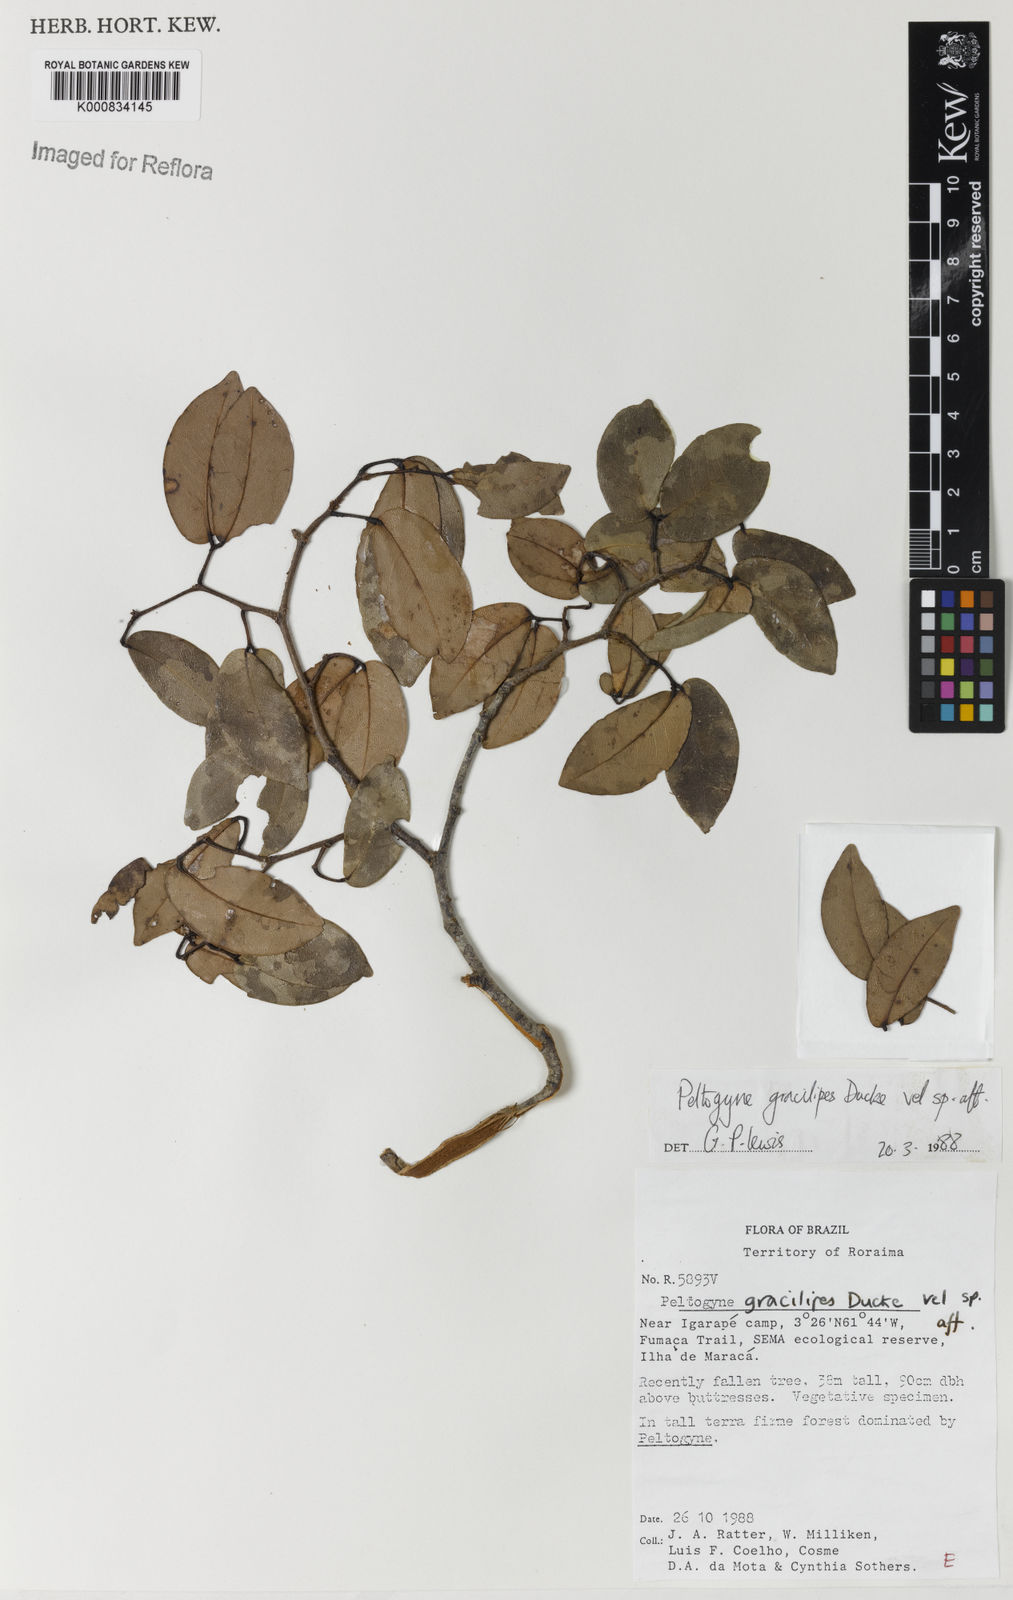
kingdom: Plantae
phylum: Tracheophyta
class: Magnoliopsida
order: Fabales
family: Fabaceae
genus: Peltogyne
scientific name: Peltogyne gracilipes
